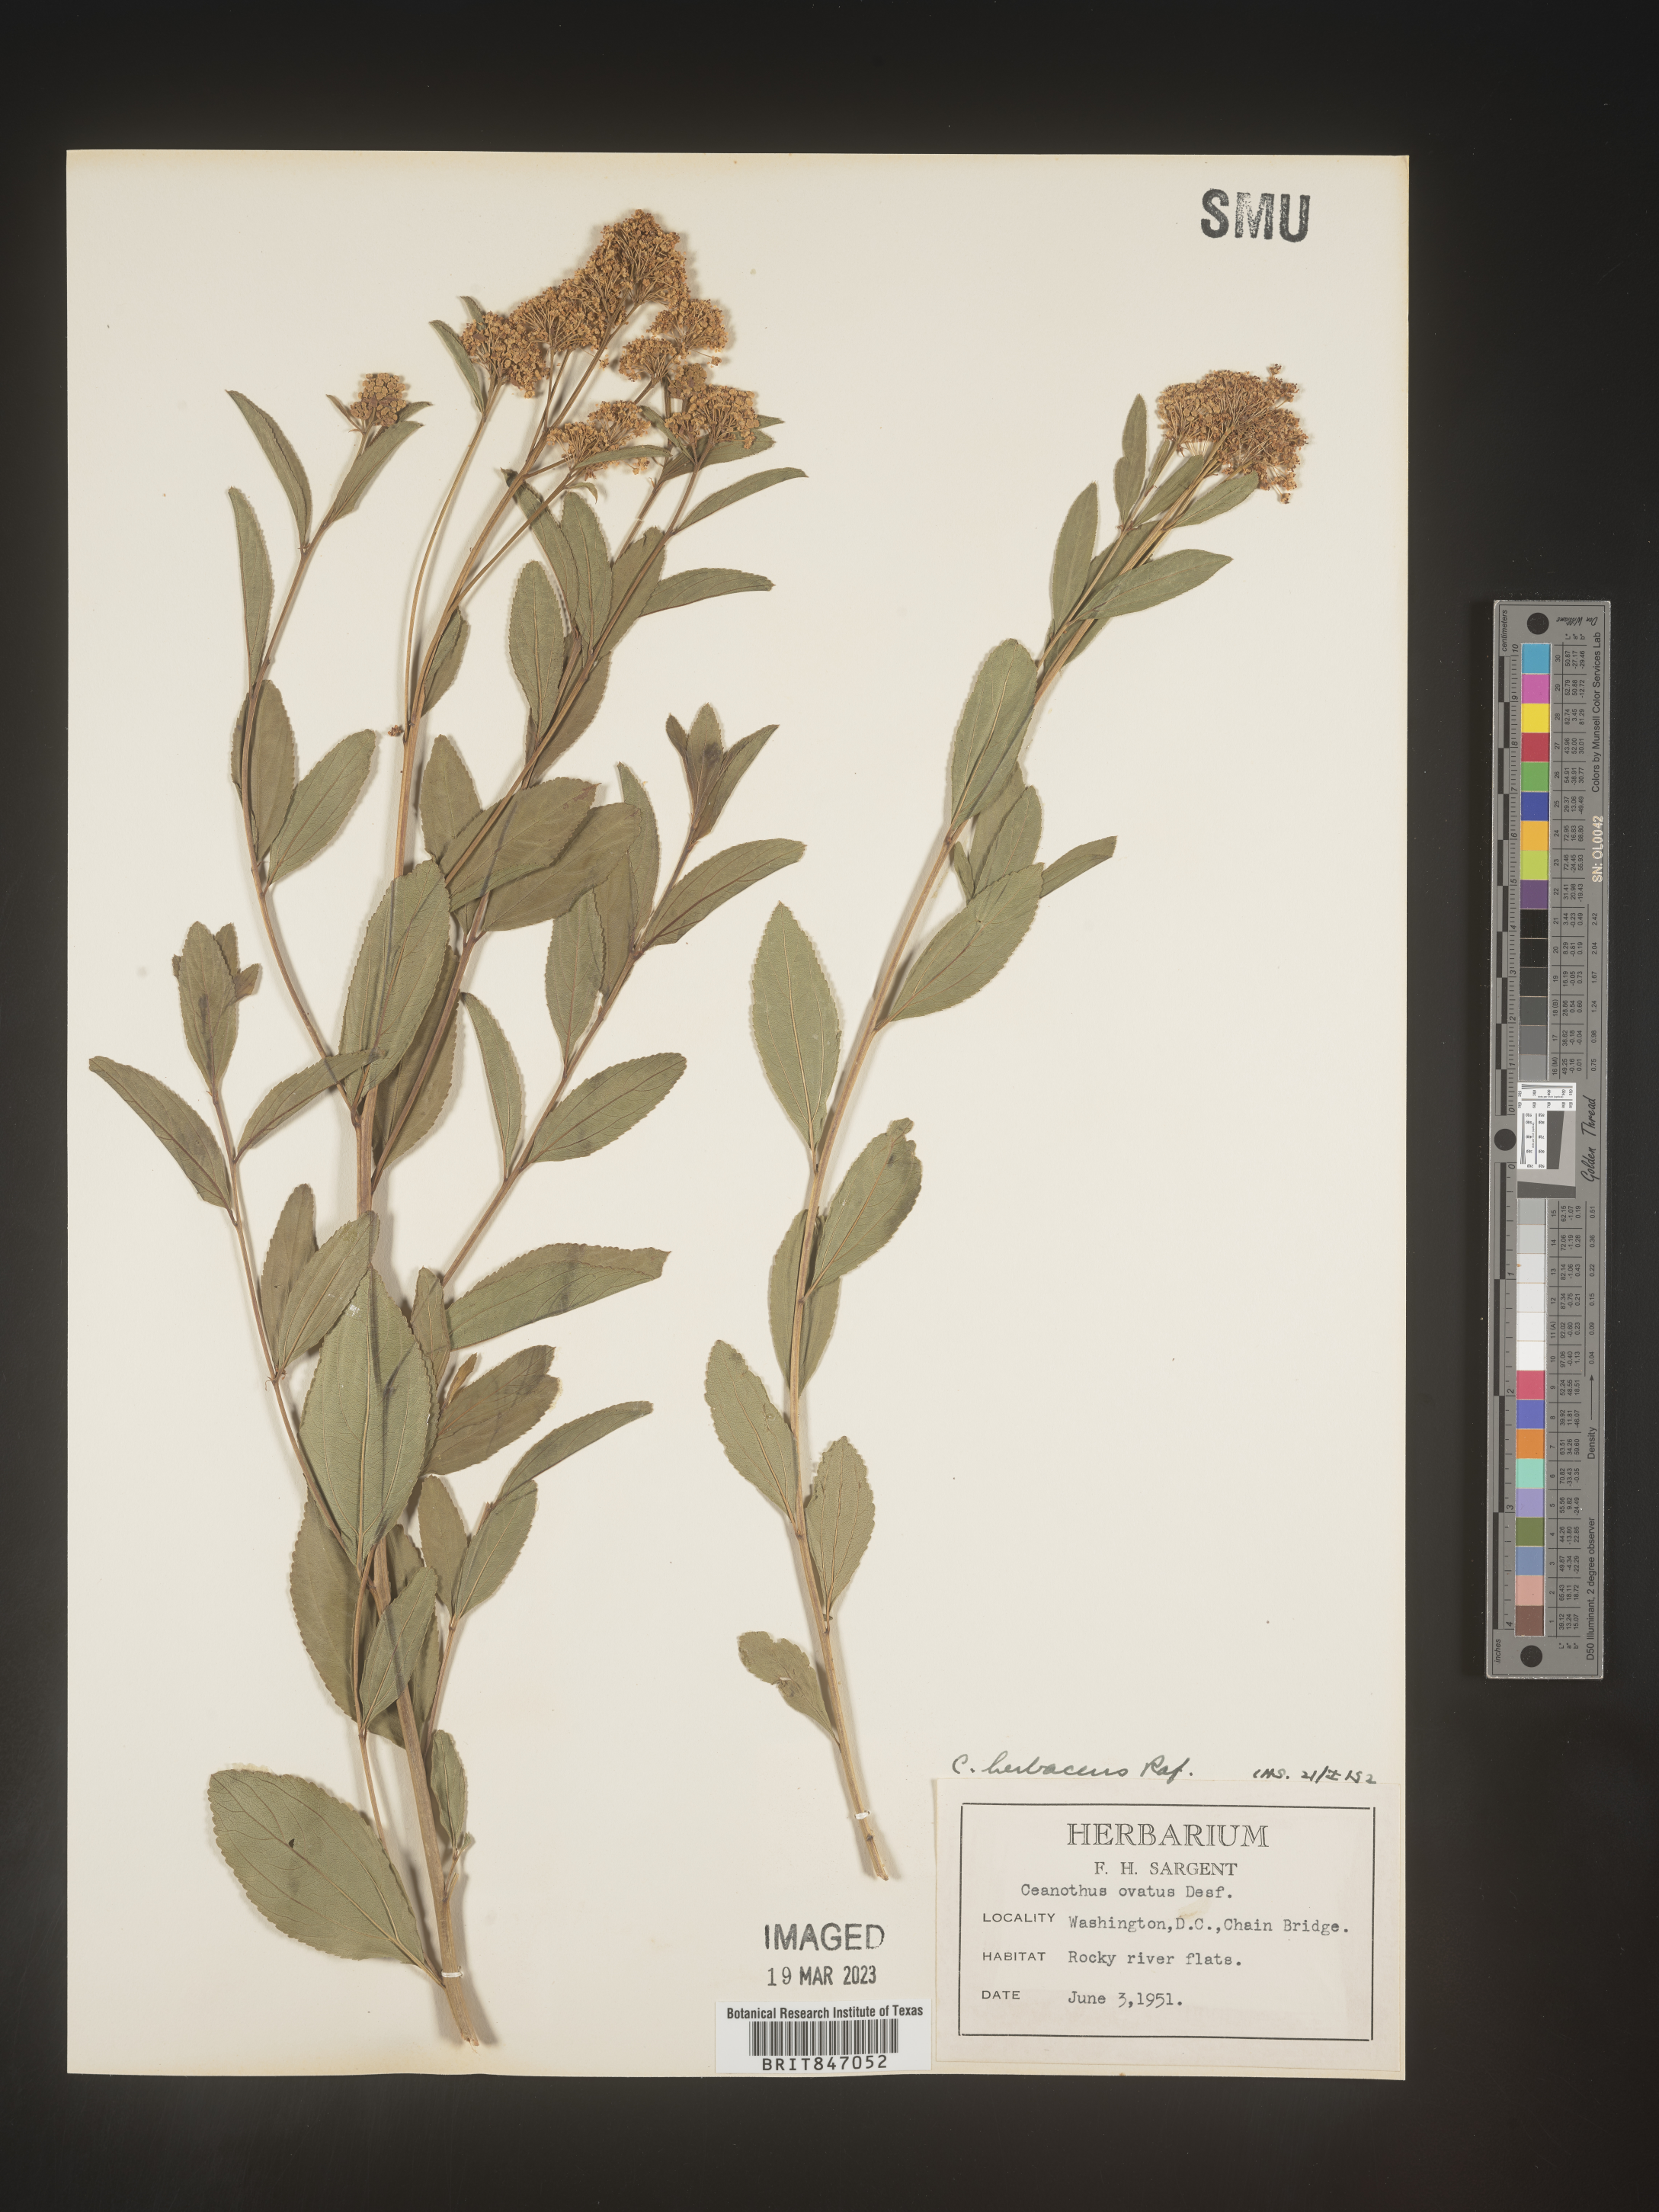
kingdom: Plantae
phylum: Tracheophyta
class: Magnoliopsida
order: Rosales
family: Rhamnaceae
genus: Ceanothus
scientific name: Ceanothus herbaceus
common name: Inland ceanothus
